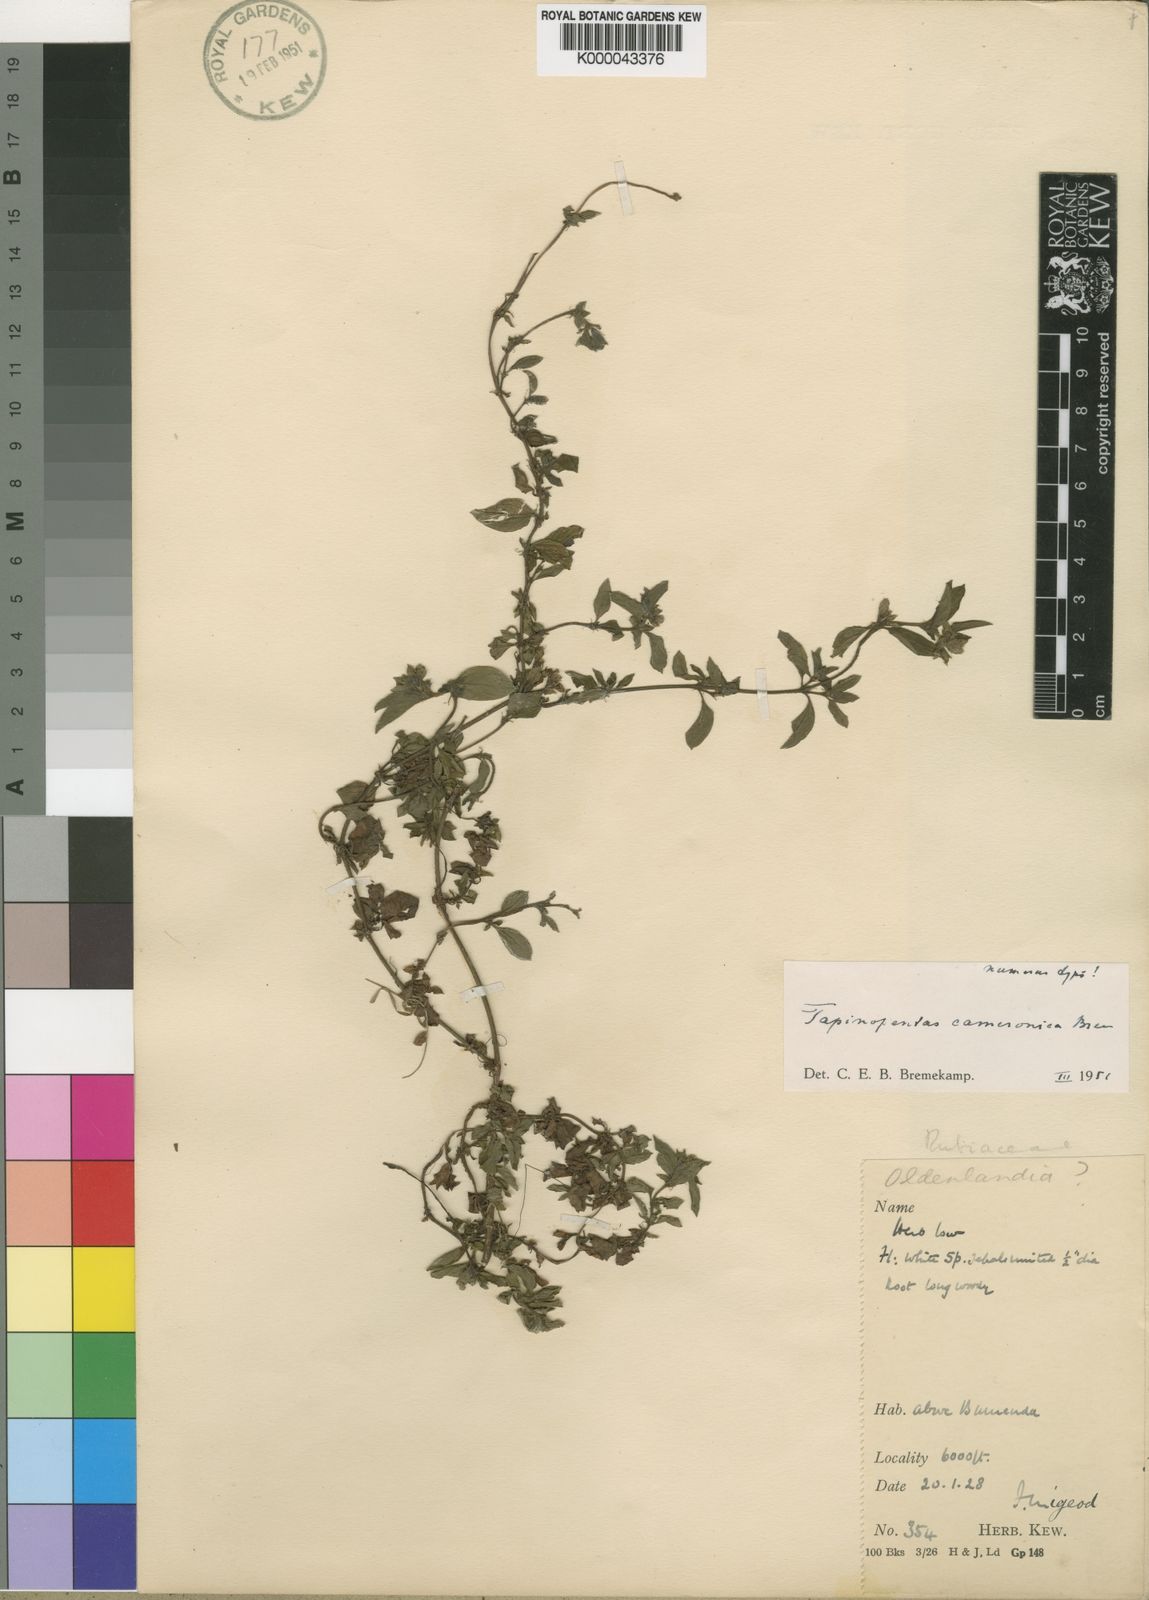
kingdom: Plantae
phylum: Tracheophyta
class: Magnoliopsida
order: Gentianales
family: Rubiaceae
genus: Otomeria
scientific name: Otomeria cameronica
